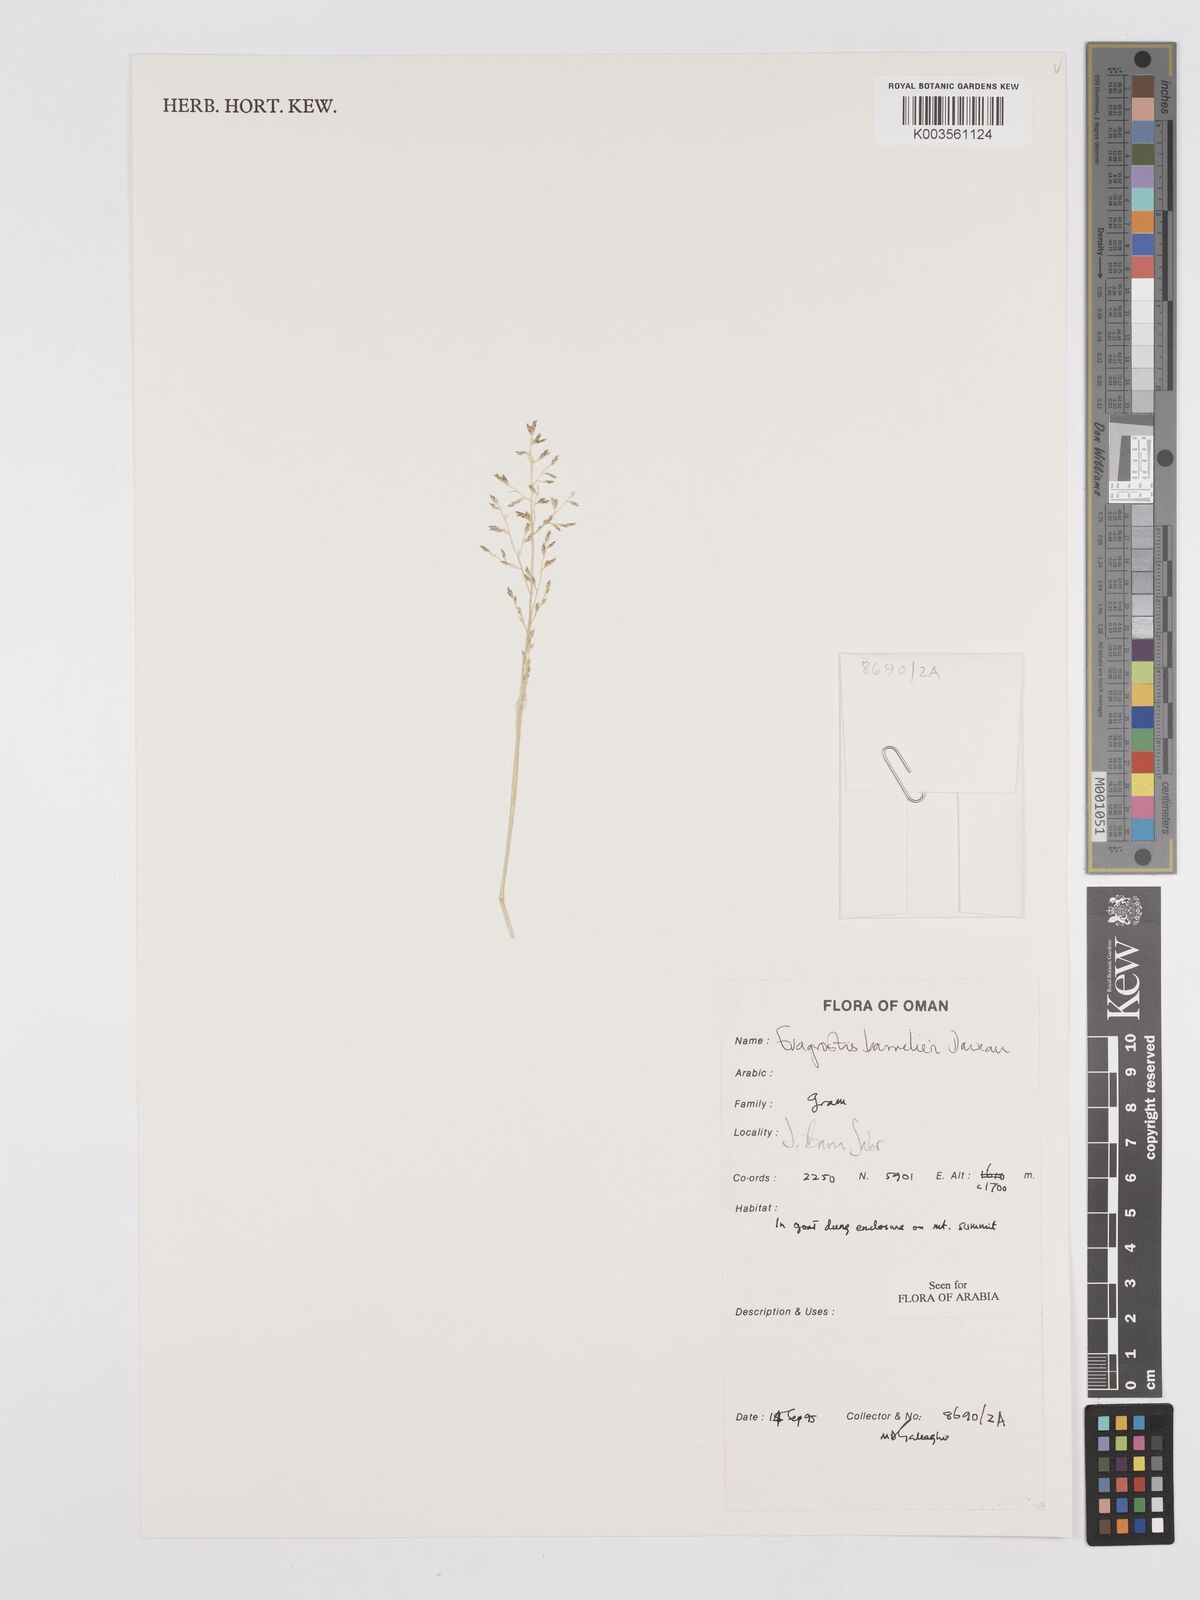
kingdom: Plantae
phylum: Tracheophyta
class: Liliopsida
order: Poales
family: Poaceae
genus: Eragrostis
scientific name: Eragrostis barrelieri
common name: Mediterranean lovegrass
